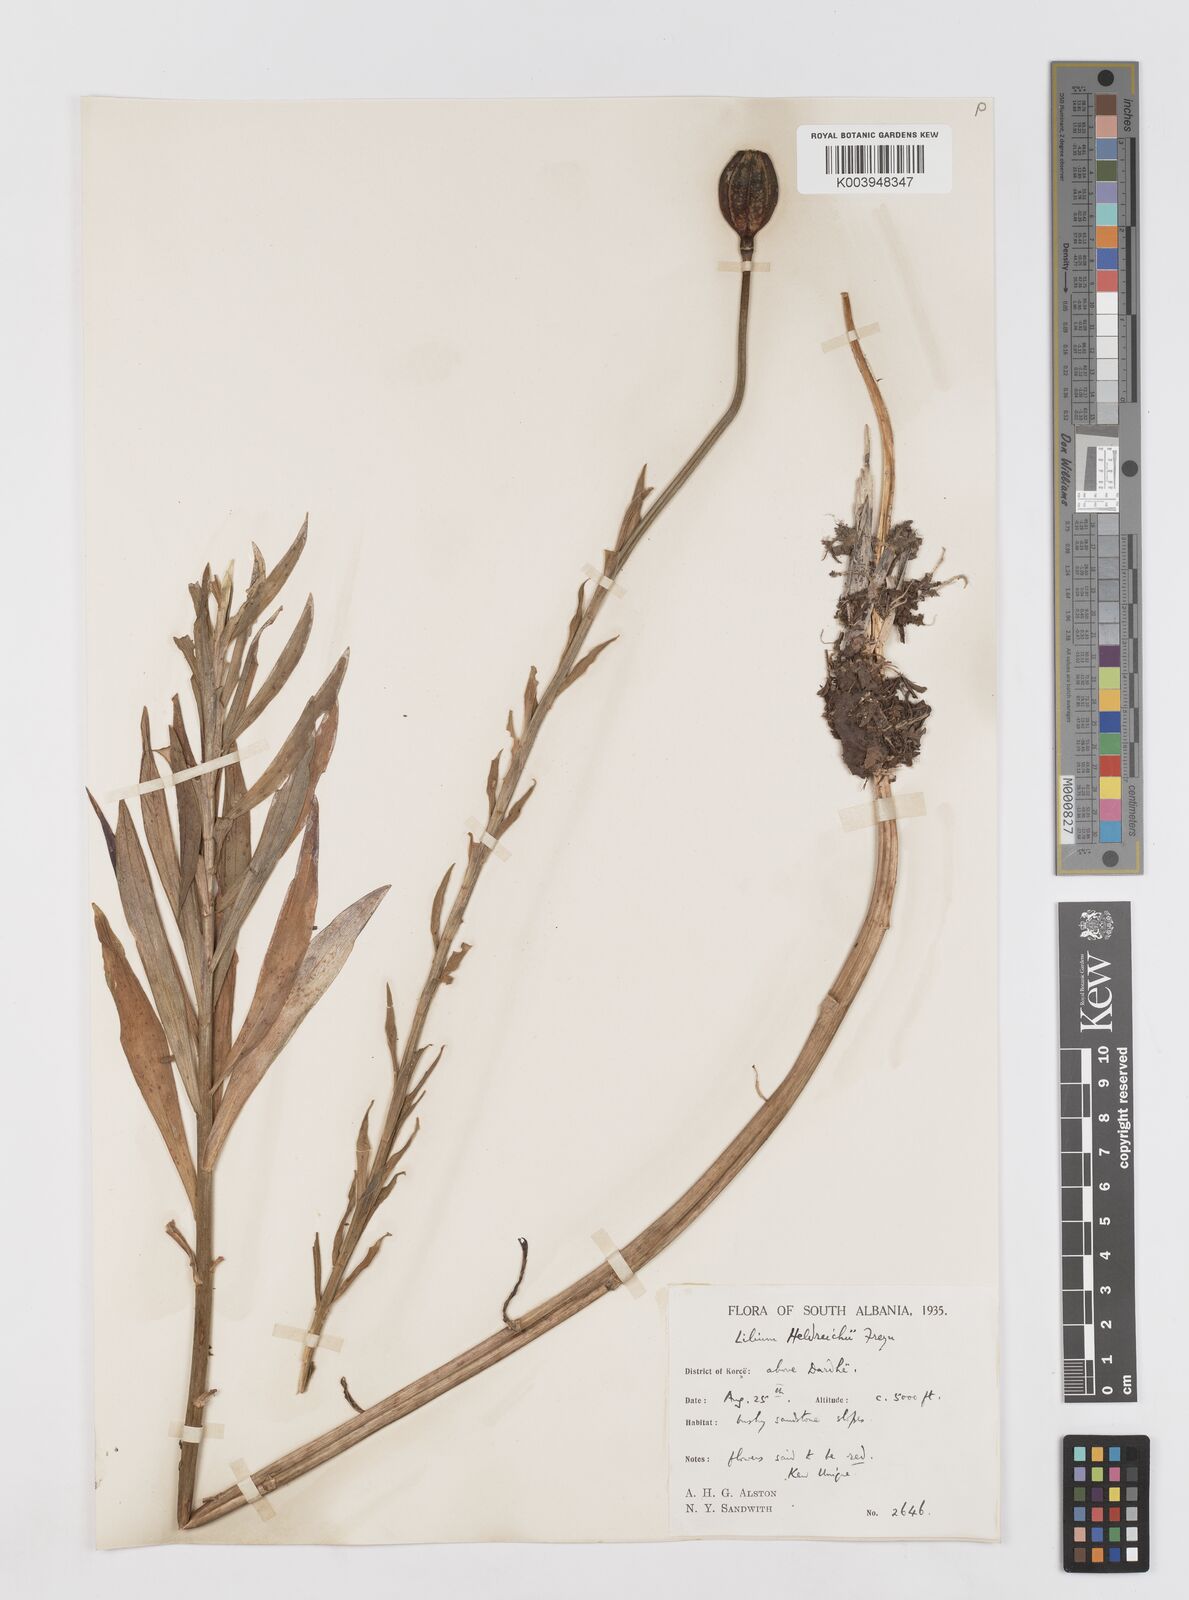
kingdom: Plantae
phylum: Tracheophyta
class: Liliopsida
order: Liliales
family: Liliaceae
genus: Lilium
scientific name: Lilium chalcedonicum
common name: Red martagon of constantinople
